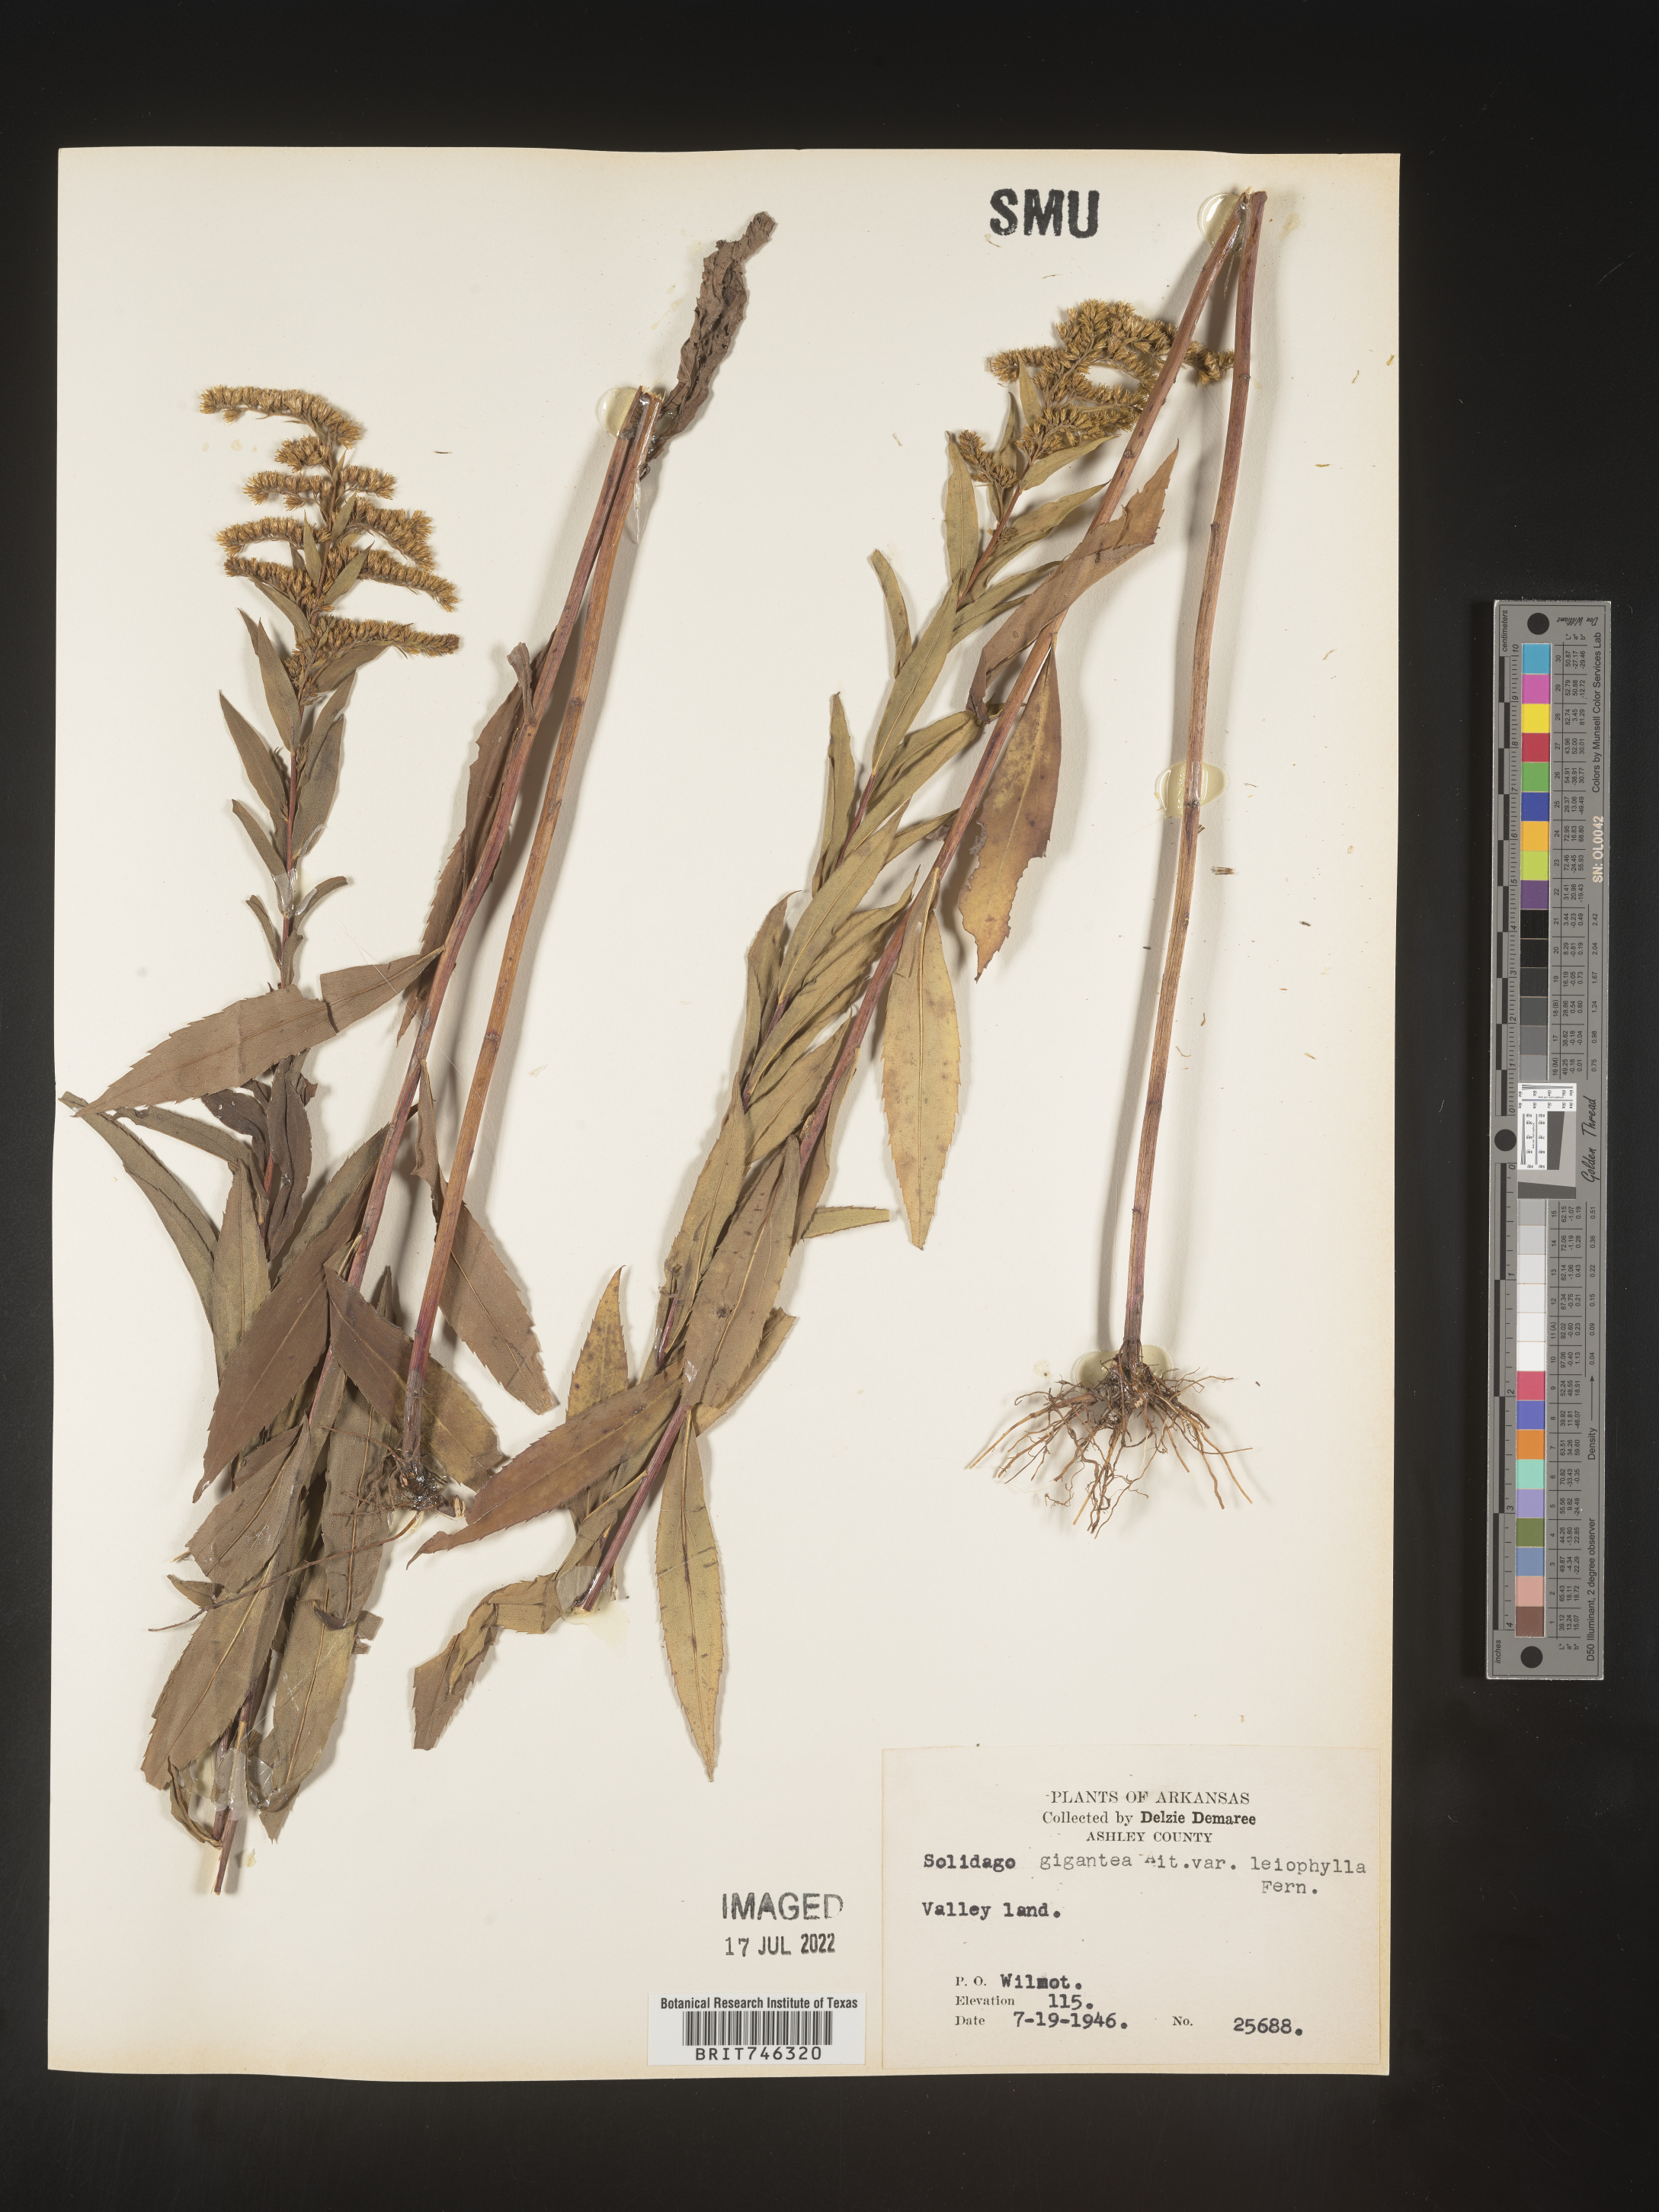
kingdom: Plantae
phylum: Tracheophyta
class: Magnoliopsida
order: Asterales
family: Asteraceae
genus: Solidago
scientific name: Solidago gigantea
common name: Giant goldenrod
